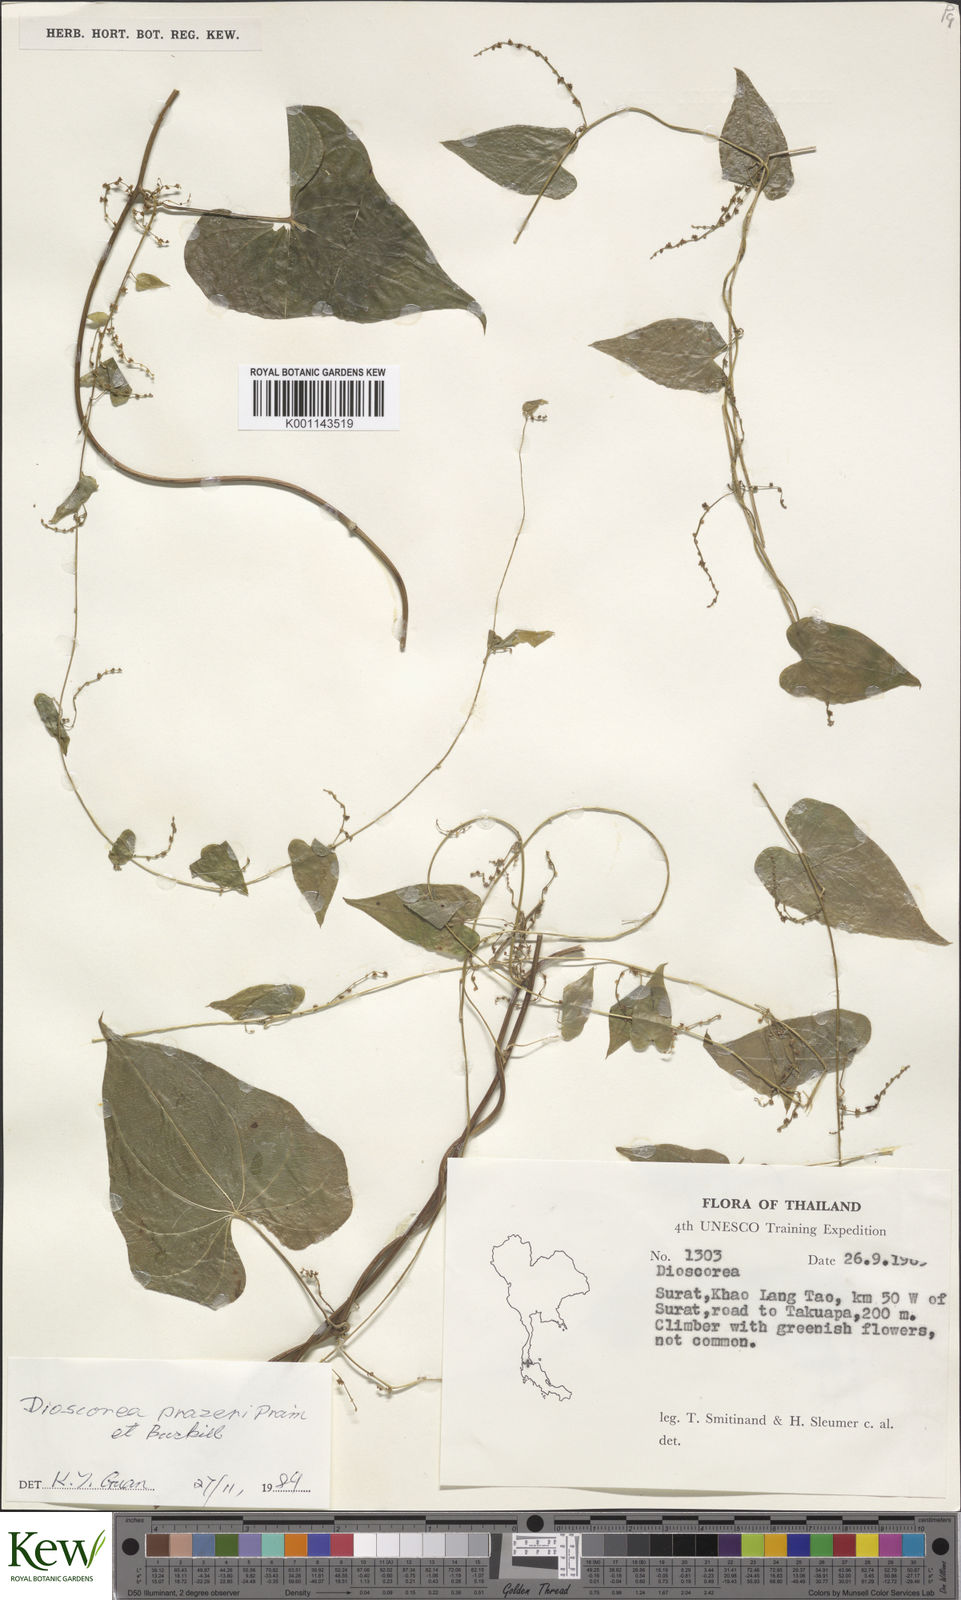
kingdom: Plantae
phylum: Tracheophyta
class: Liliopsida
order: Dioscoreales
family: Dioscoreaceae
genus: Dioscorea
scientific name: Dioscorea prazeri
